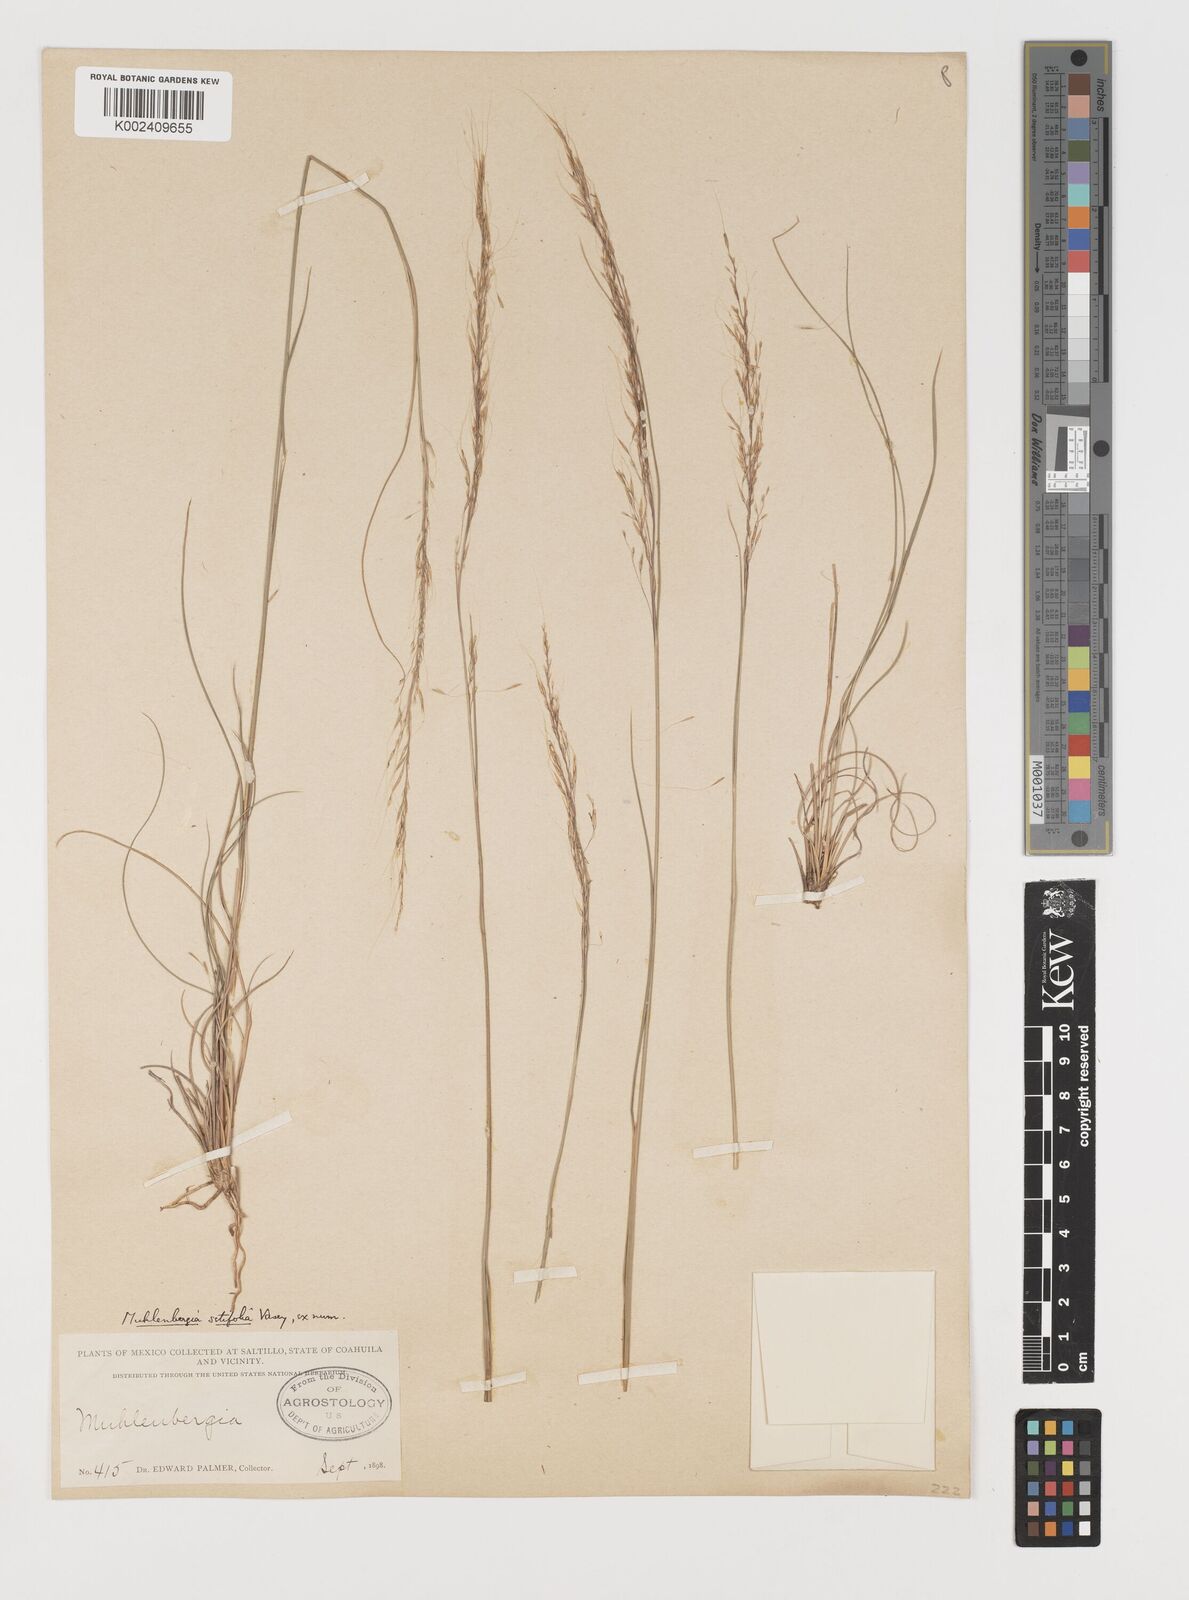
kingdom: Plantae
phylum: Tracheophyta
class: Liliopsida
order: Poales
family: Poaceae
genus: Muhlenbergia
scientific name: Muhlenbergia setifolia
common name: Curly-leaf muhly
